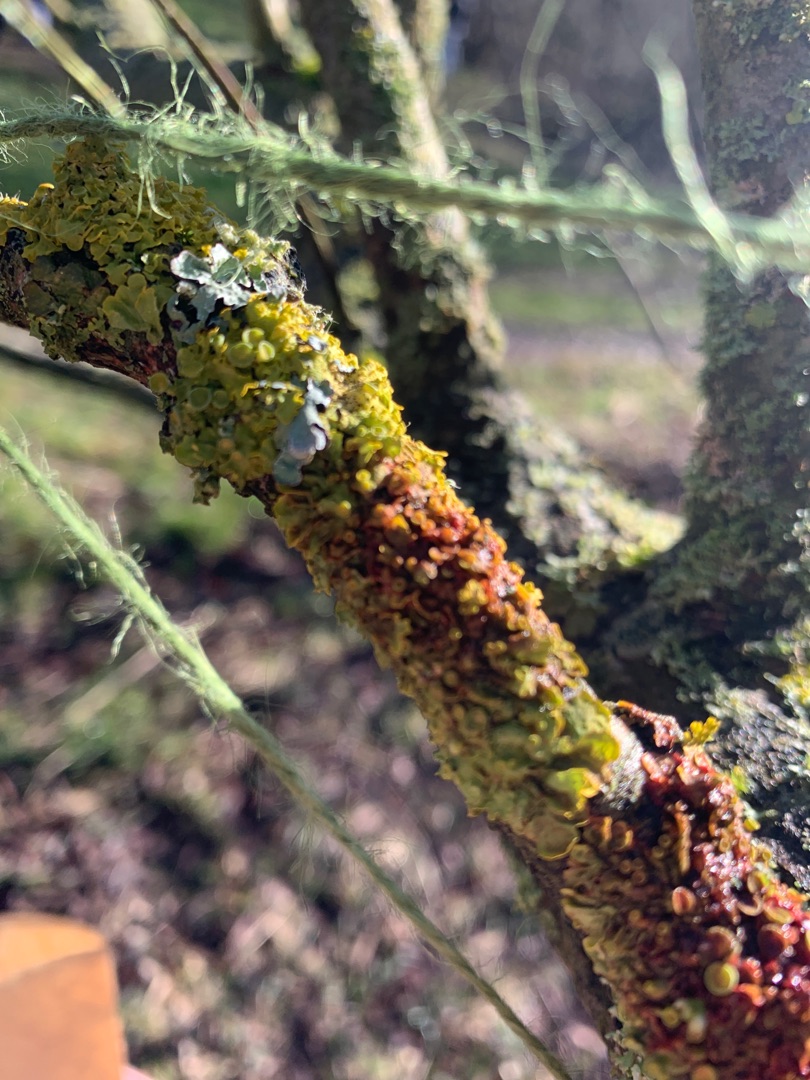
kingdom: Fungi
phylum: Ascomycota
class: Lecanoromycetes
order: Teloschistales
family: Teloschistaceae
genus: Xanthoria
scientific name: Xanthoria parietina
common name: Almindelig væggelav
